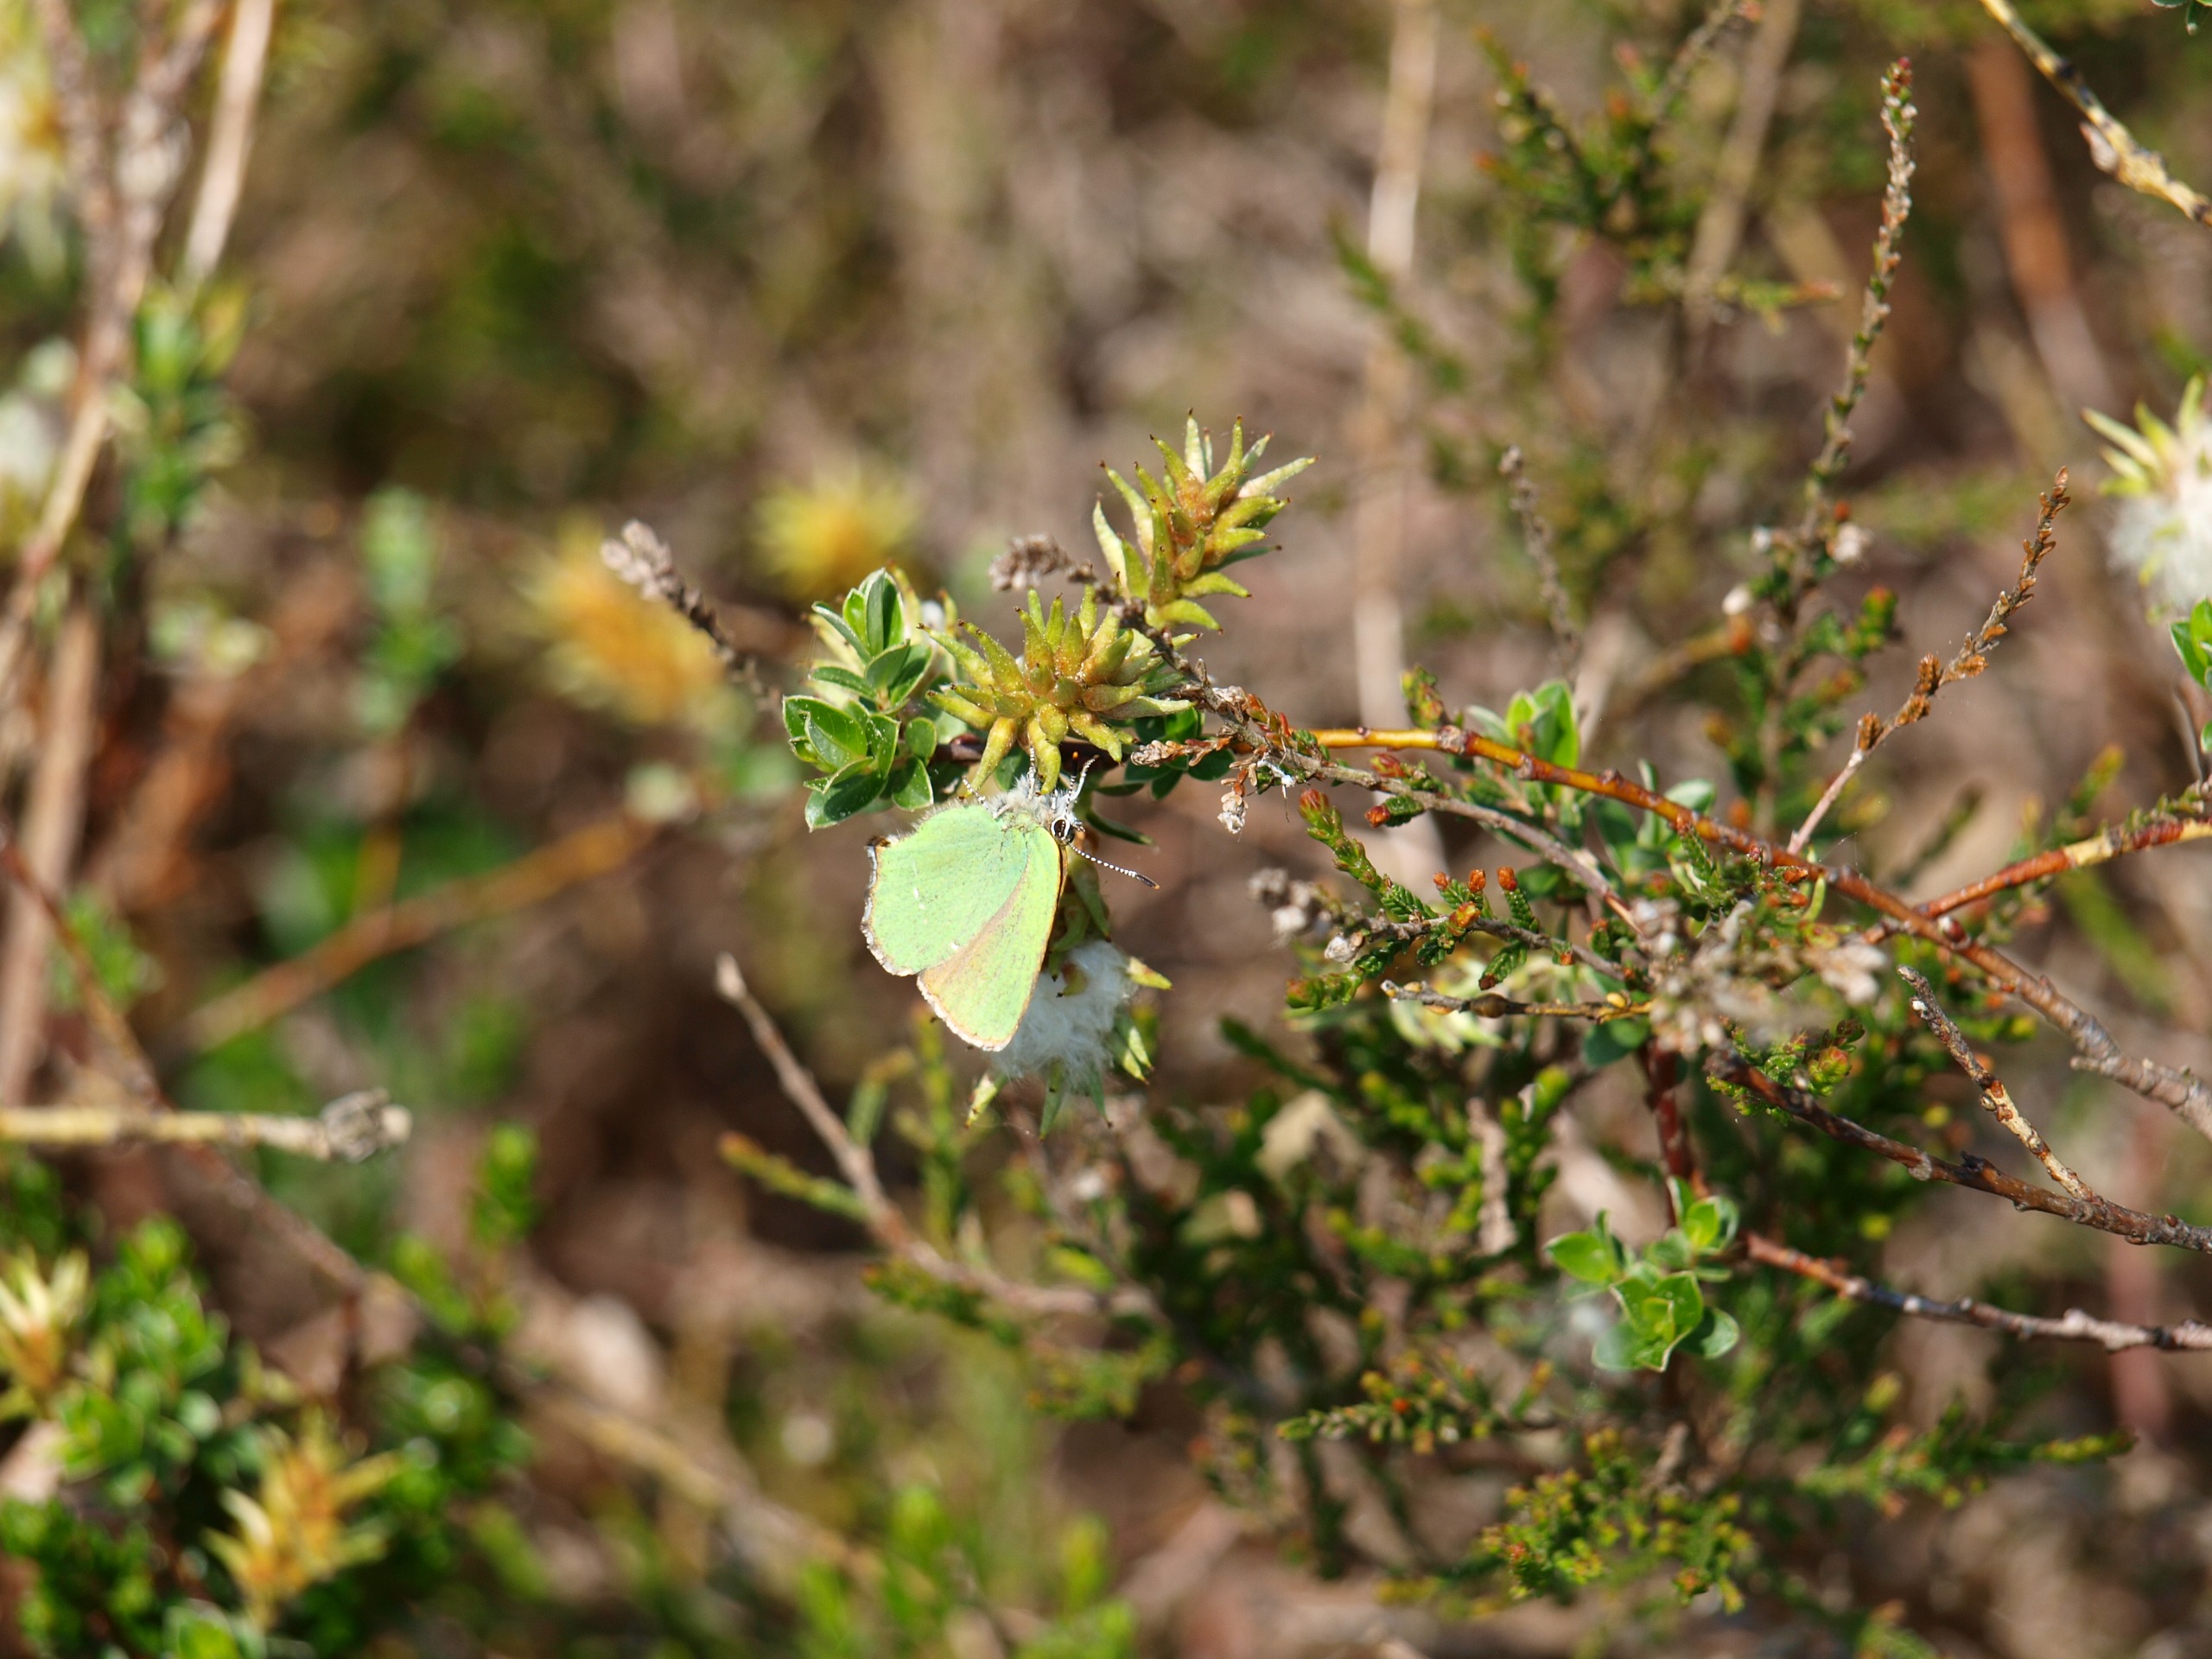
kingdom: Animalia
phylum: Arthropoda
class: Insecta
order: Lepidoptera
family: Lycaenidae
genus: Callophrys
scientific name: Callophrys rubi
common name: Grøn busksommerfugl
